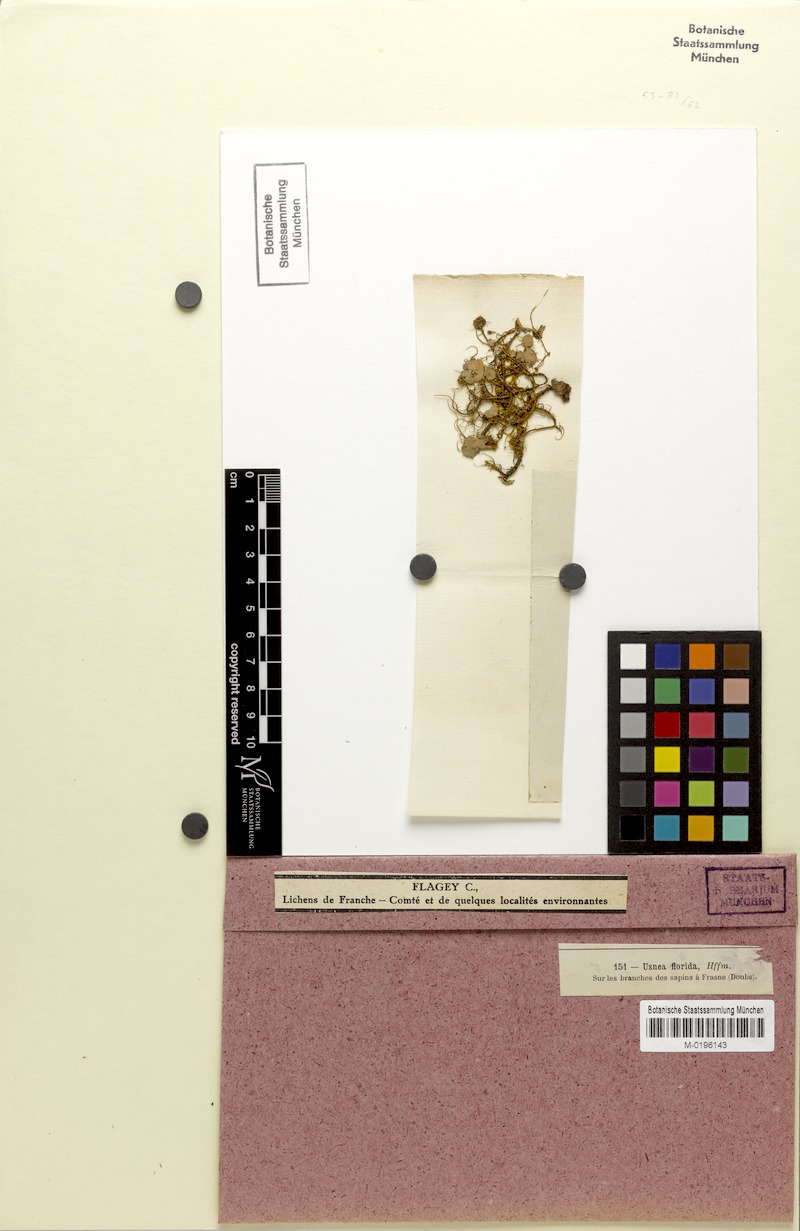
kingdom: Fungi
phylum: Ascomycota
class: Lecanoromycetes
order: Lecanorales
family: Parmeliaceae
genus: Usnea
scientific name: Usnea florida
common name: Witches' whiskers lichen
